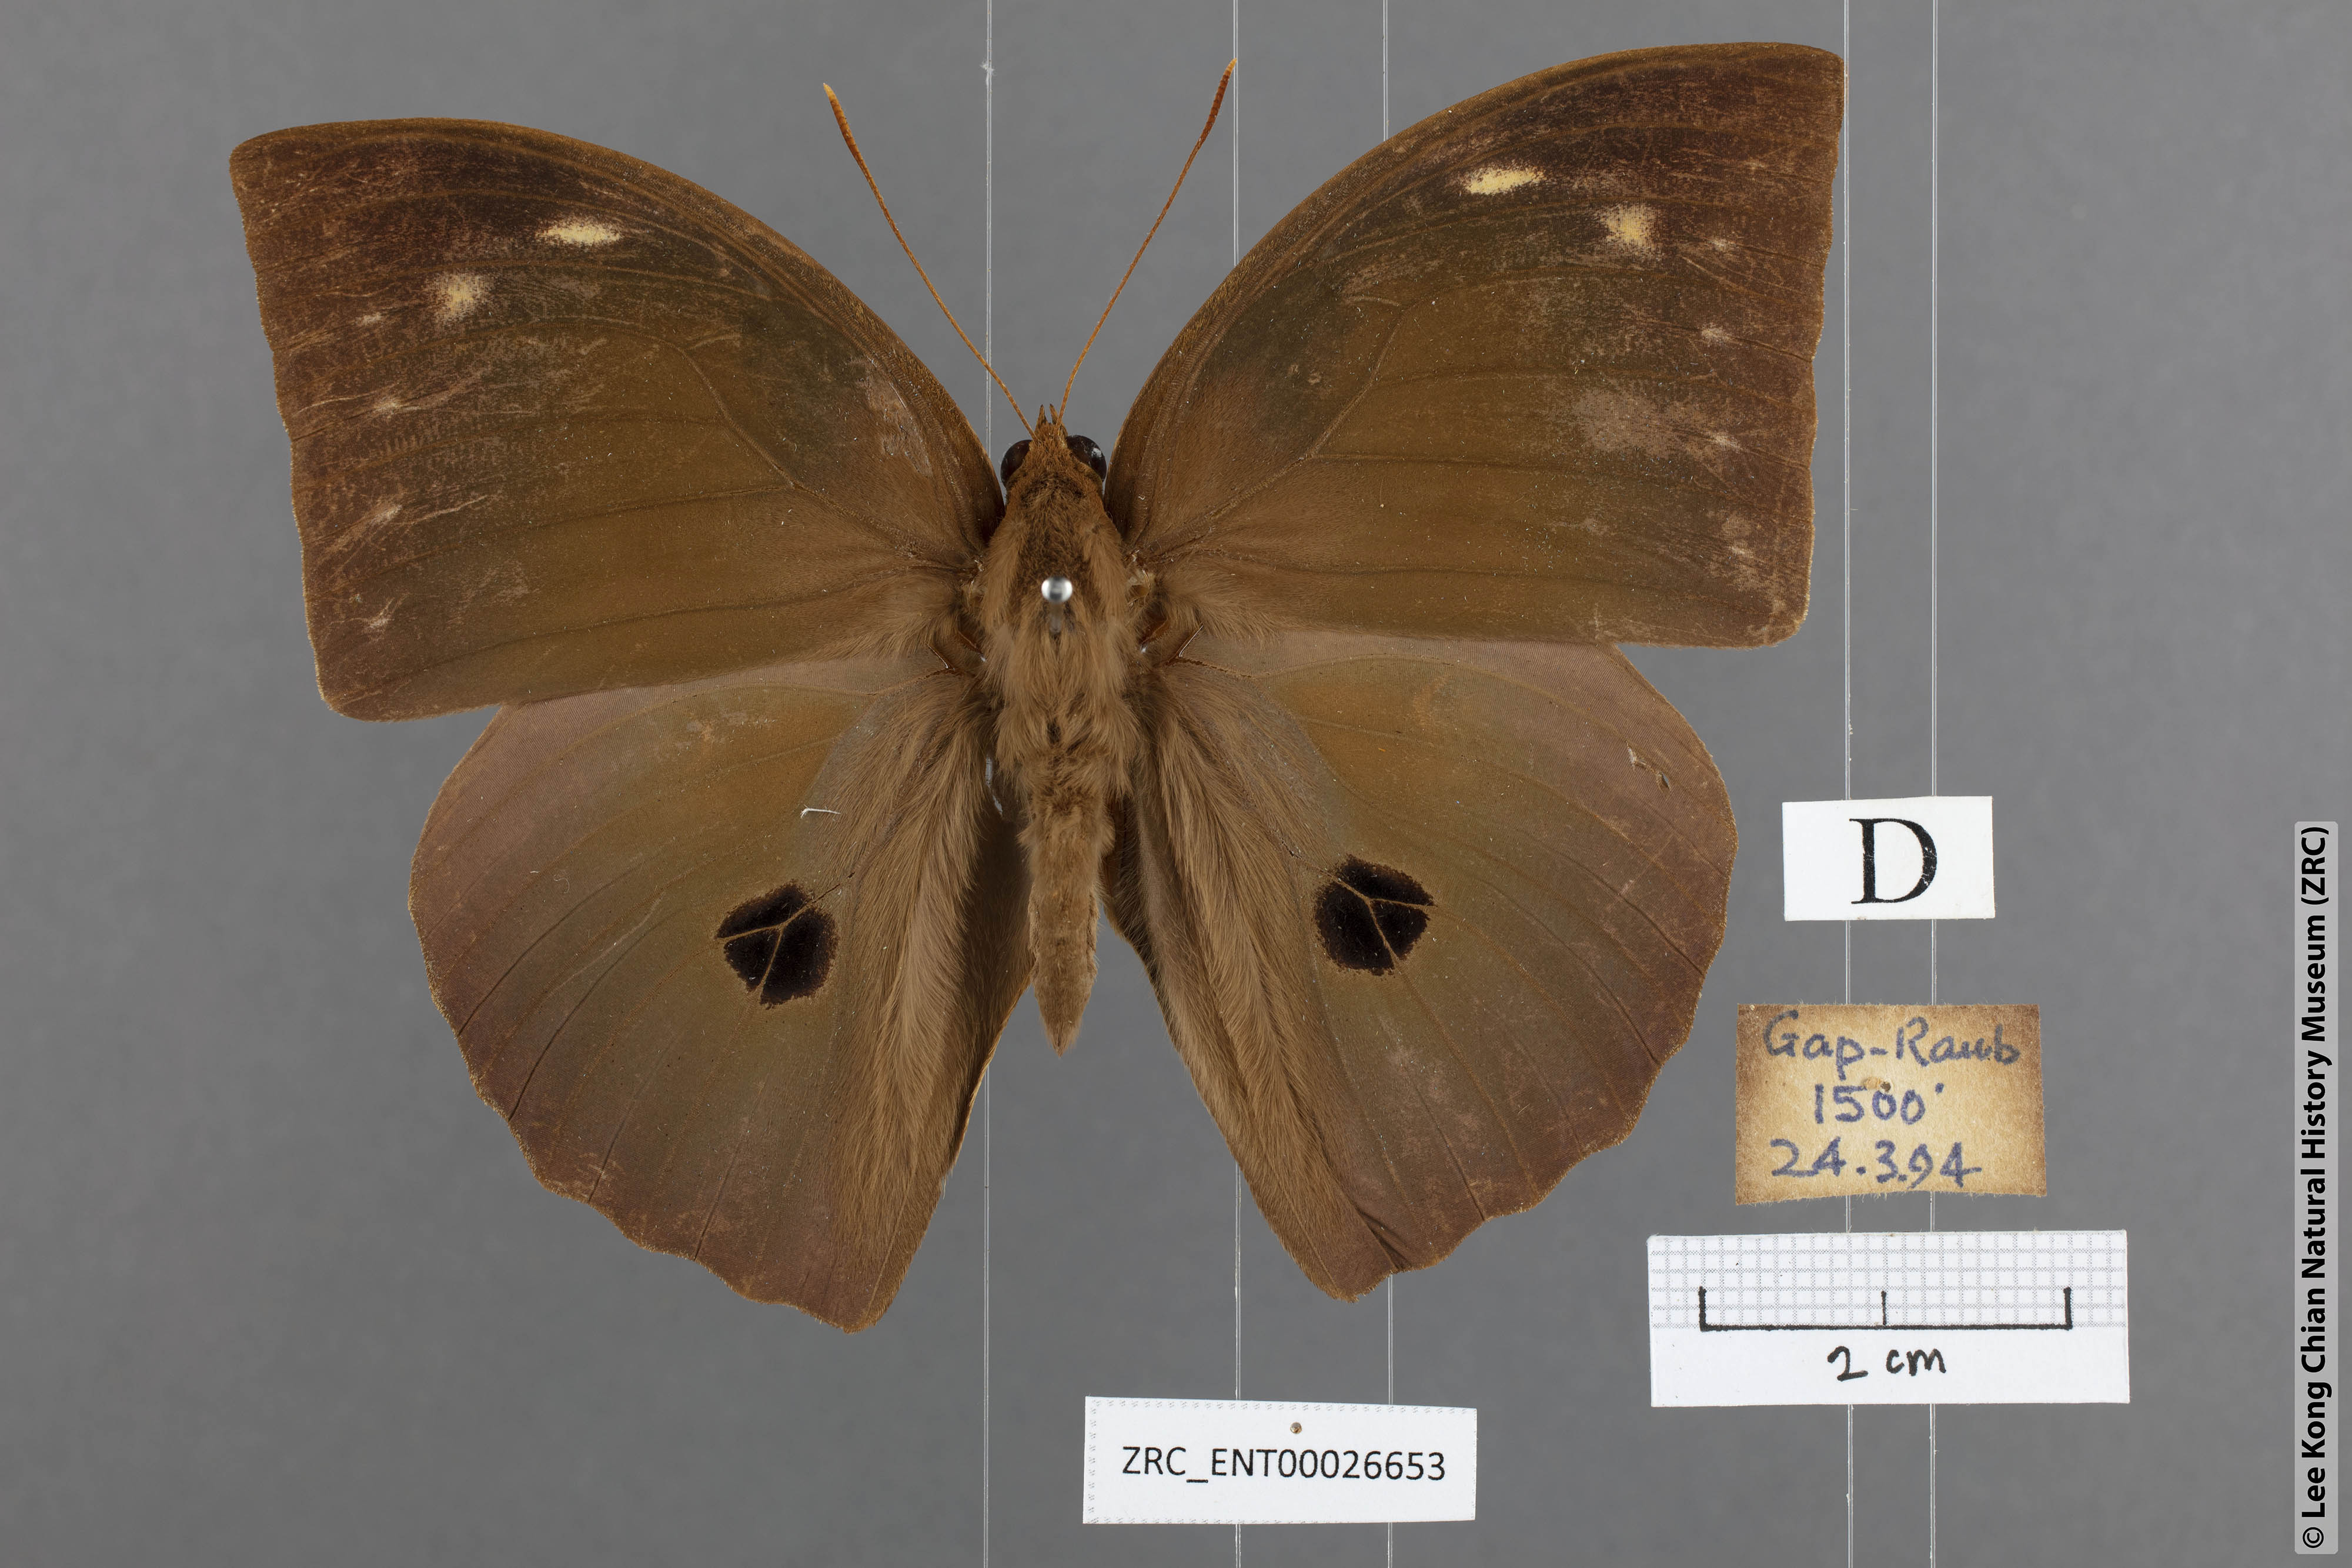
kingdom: Animalia
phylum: Arthropoda
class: Insecta
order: Lepidoptera
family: Nymphalidae
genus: Discophora
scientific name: Discophora timora
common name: Great duffer
